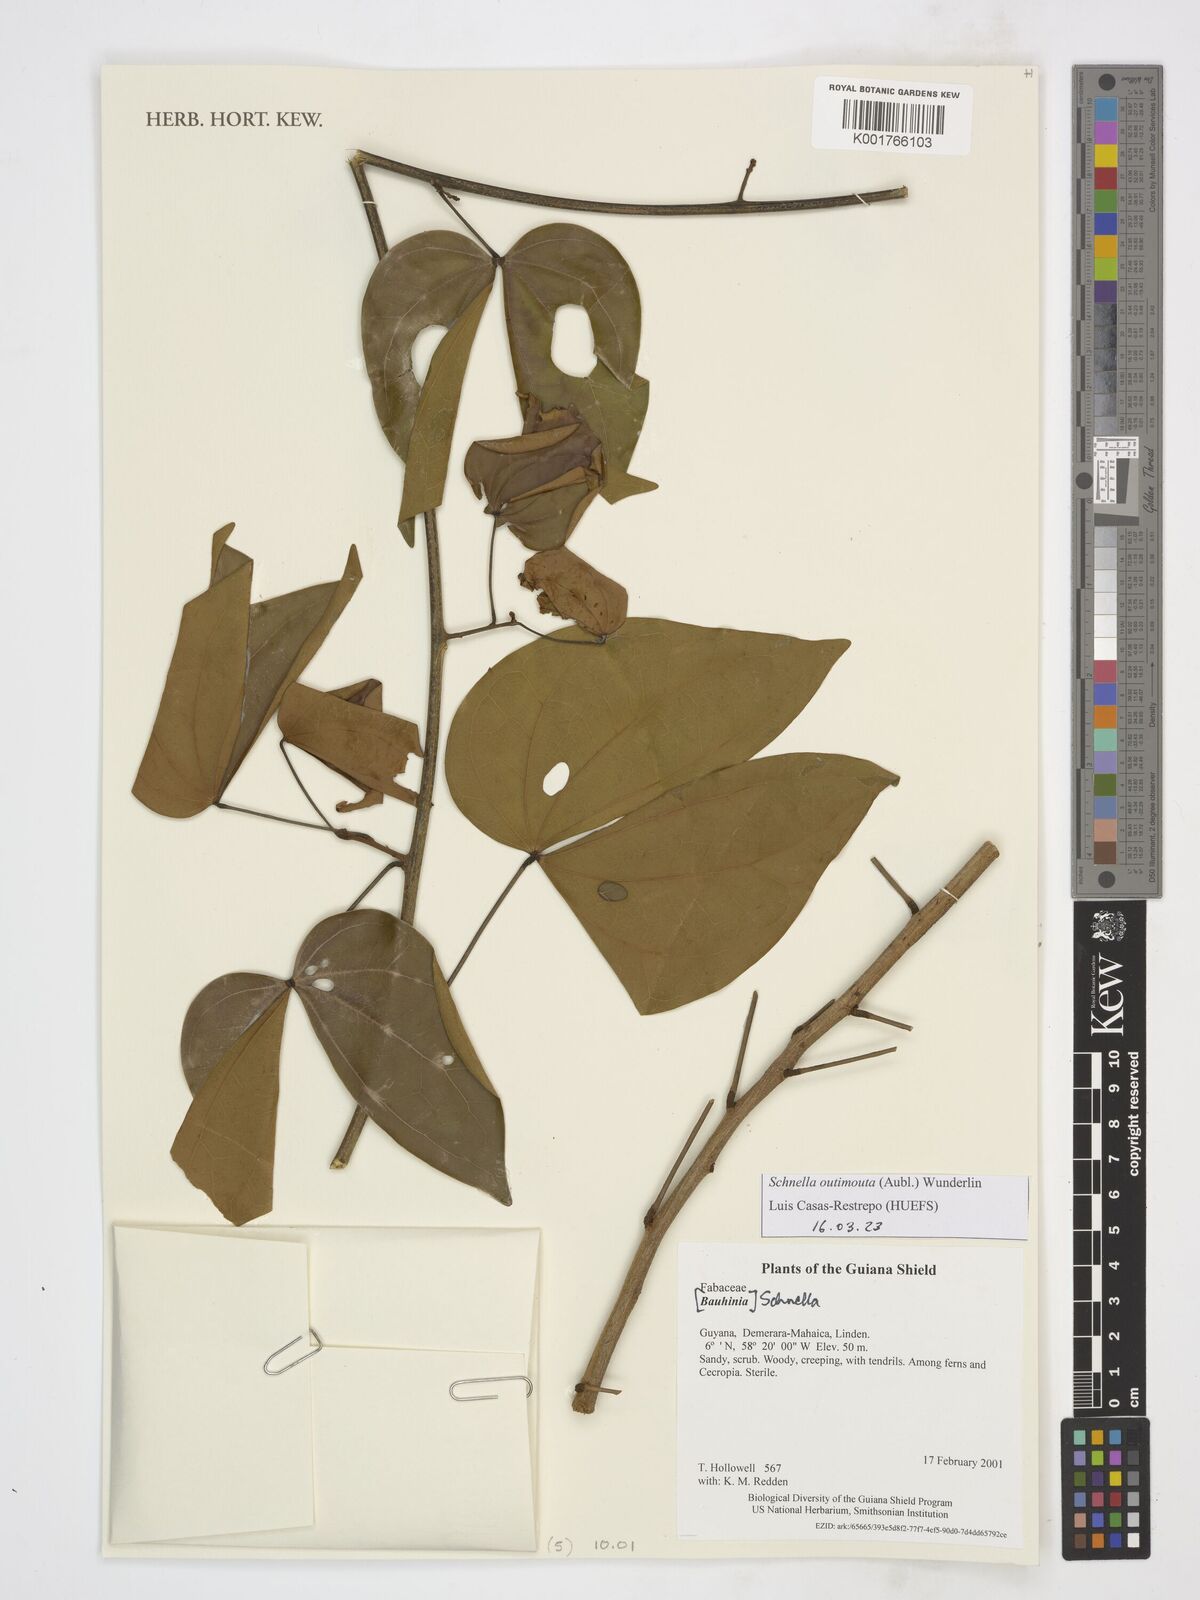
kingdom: Plantae
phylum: Tracheophyta
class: Magnoliopsida
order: Fabales
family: Fabaceae
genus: Schnella
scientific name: Schnella outimouta
